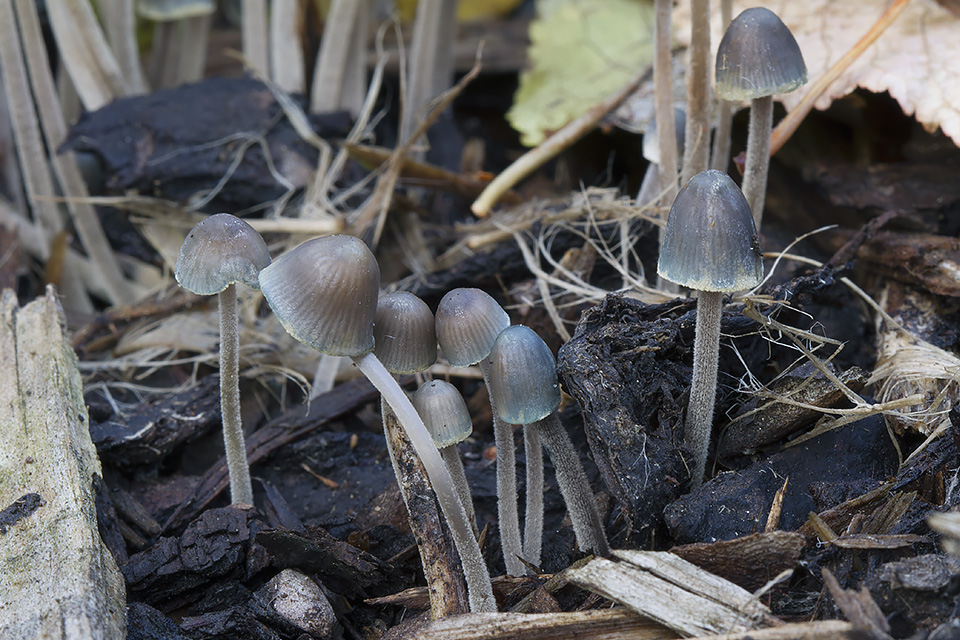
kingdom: Fungi
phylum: Basidiomycota
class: Agaricomycetes
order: Agaricales
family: Mycenaceae
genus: Mycena
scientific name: Mycena amicta
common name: iris-huesvamp
